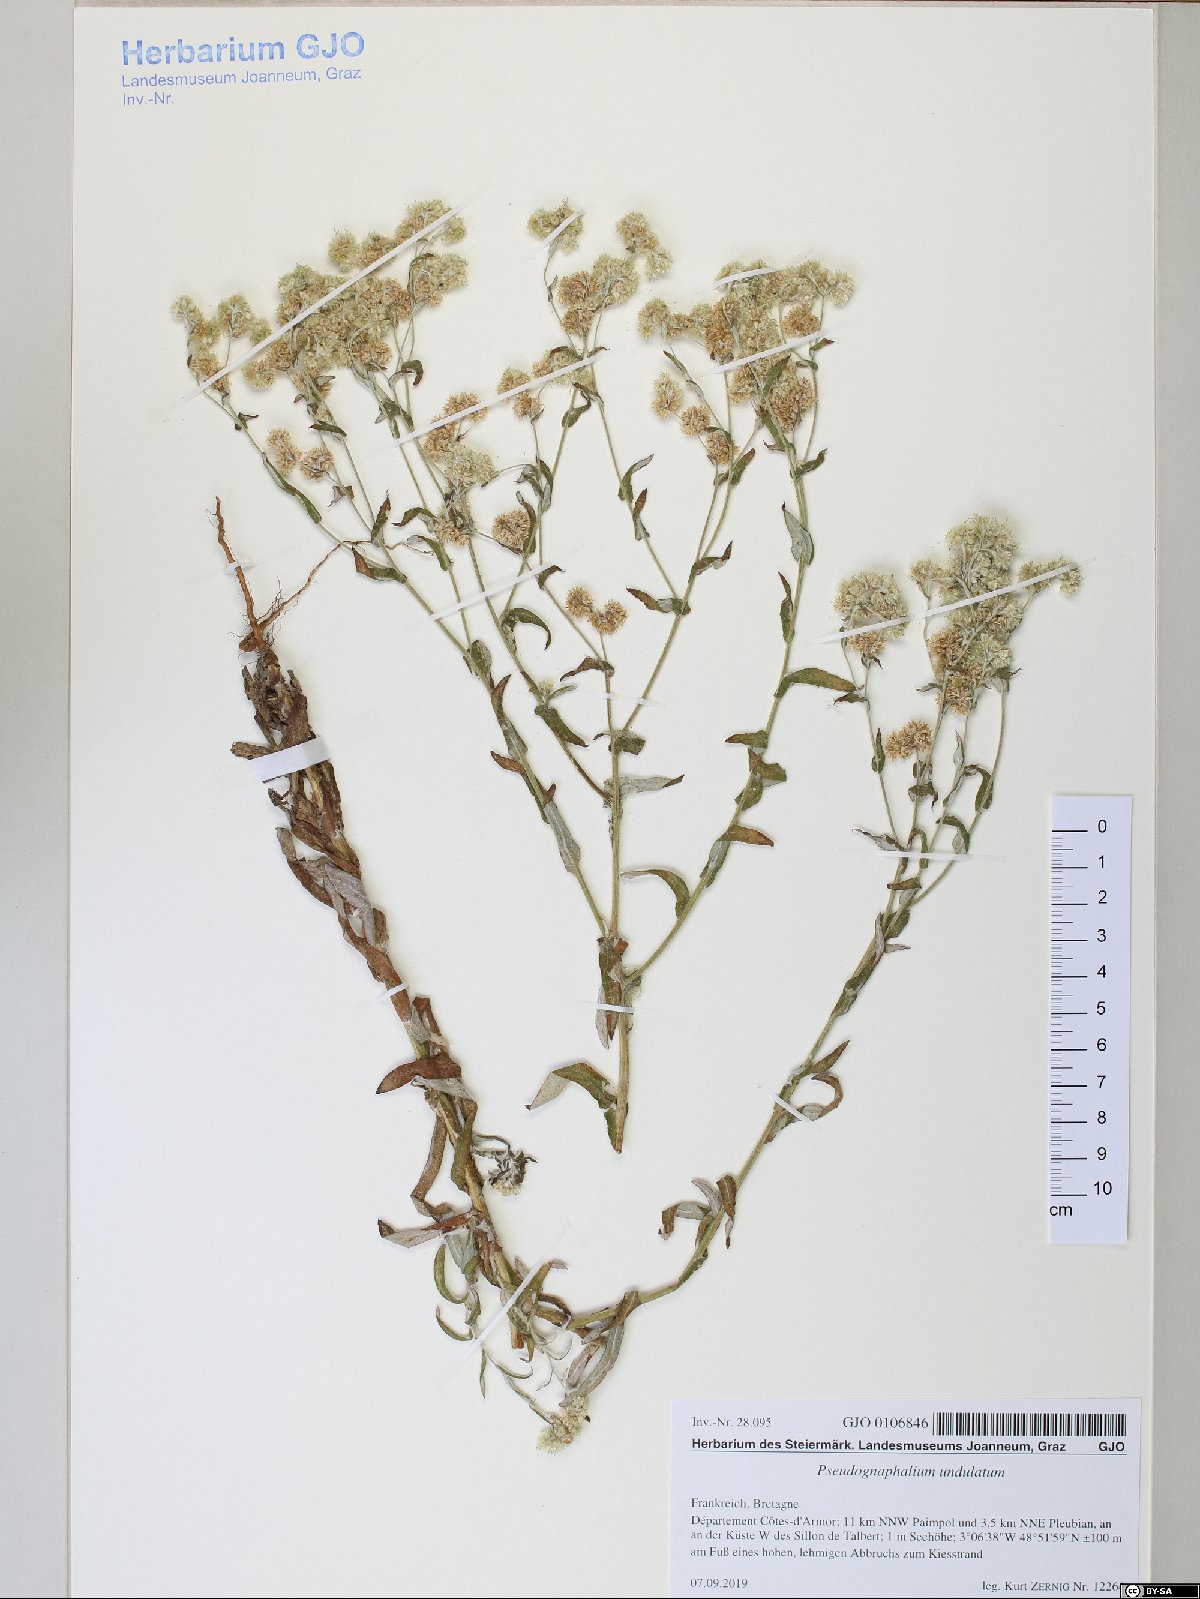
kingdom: Plantae
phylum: Tracheophyta
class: Magnoliopsida
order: Asterales
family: Asteraceae
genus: Pseudognaphalium
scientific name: Pseudognaphalium undulatum
